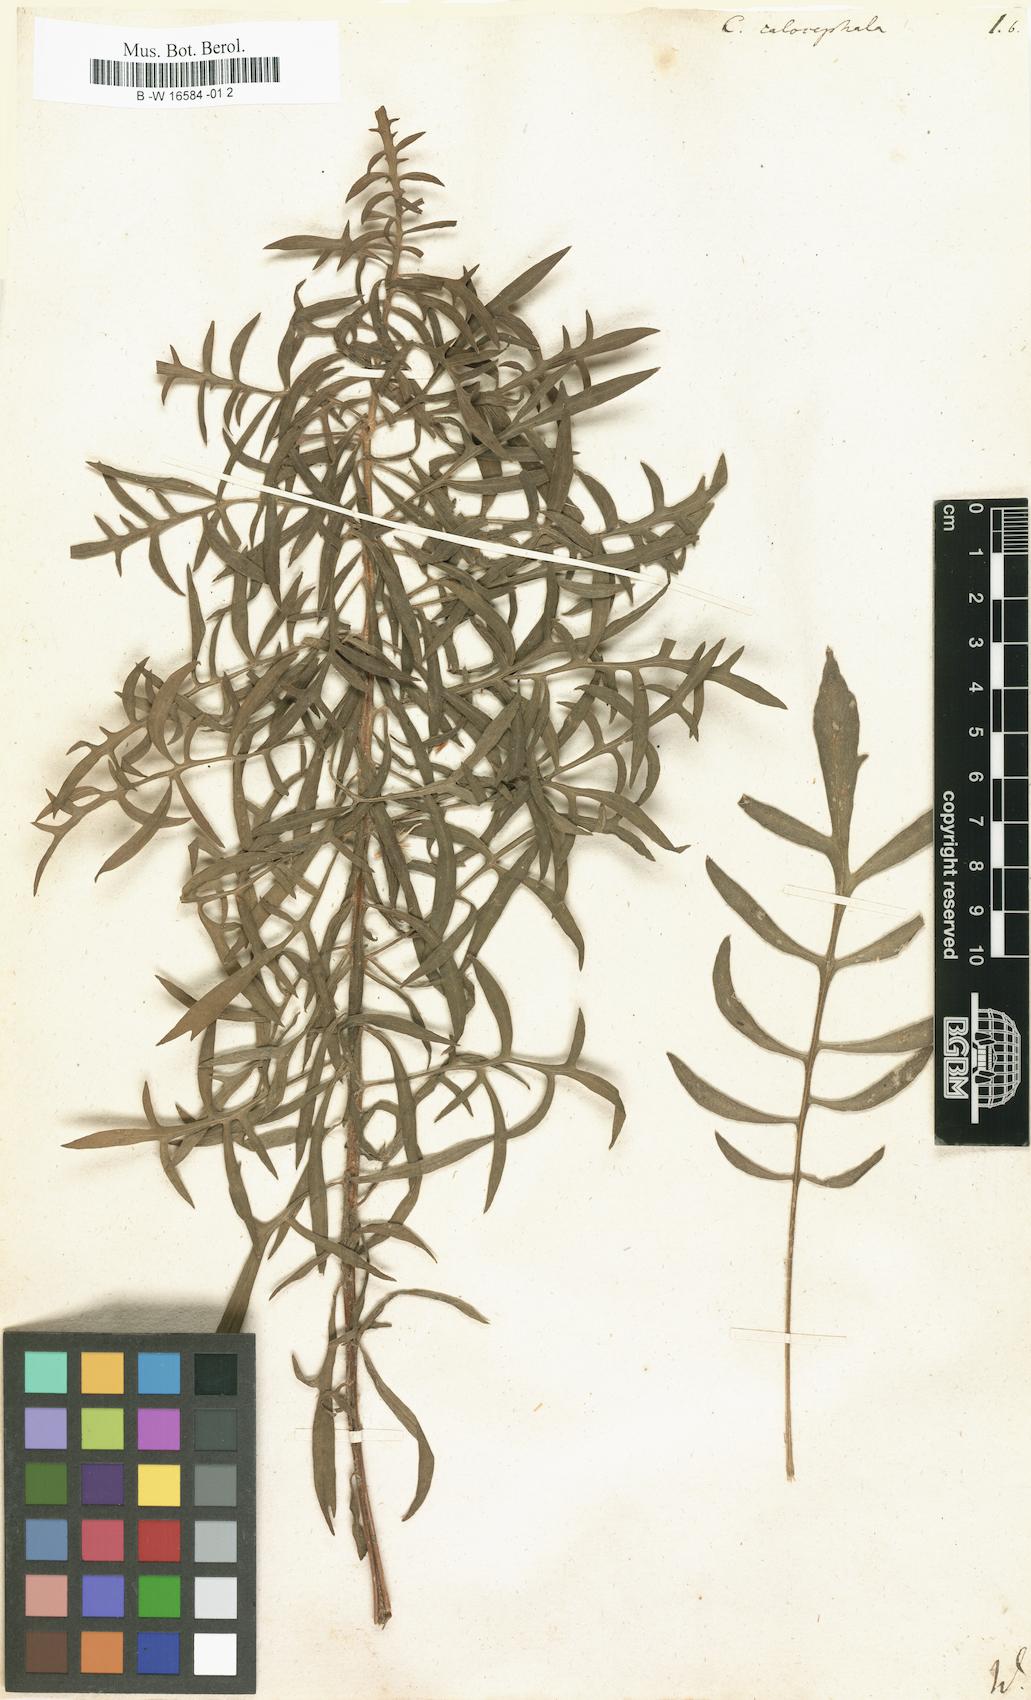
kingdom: Plantae
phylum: Tracheophyta
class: Magnoliopsida
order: Asterales
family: Asteraceae
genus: Centaurea
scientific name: Centaurea calocephala
